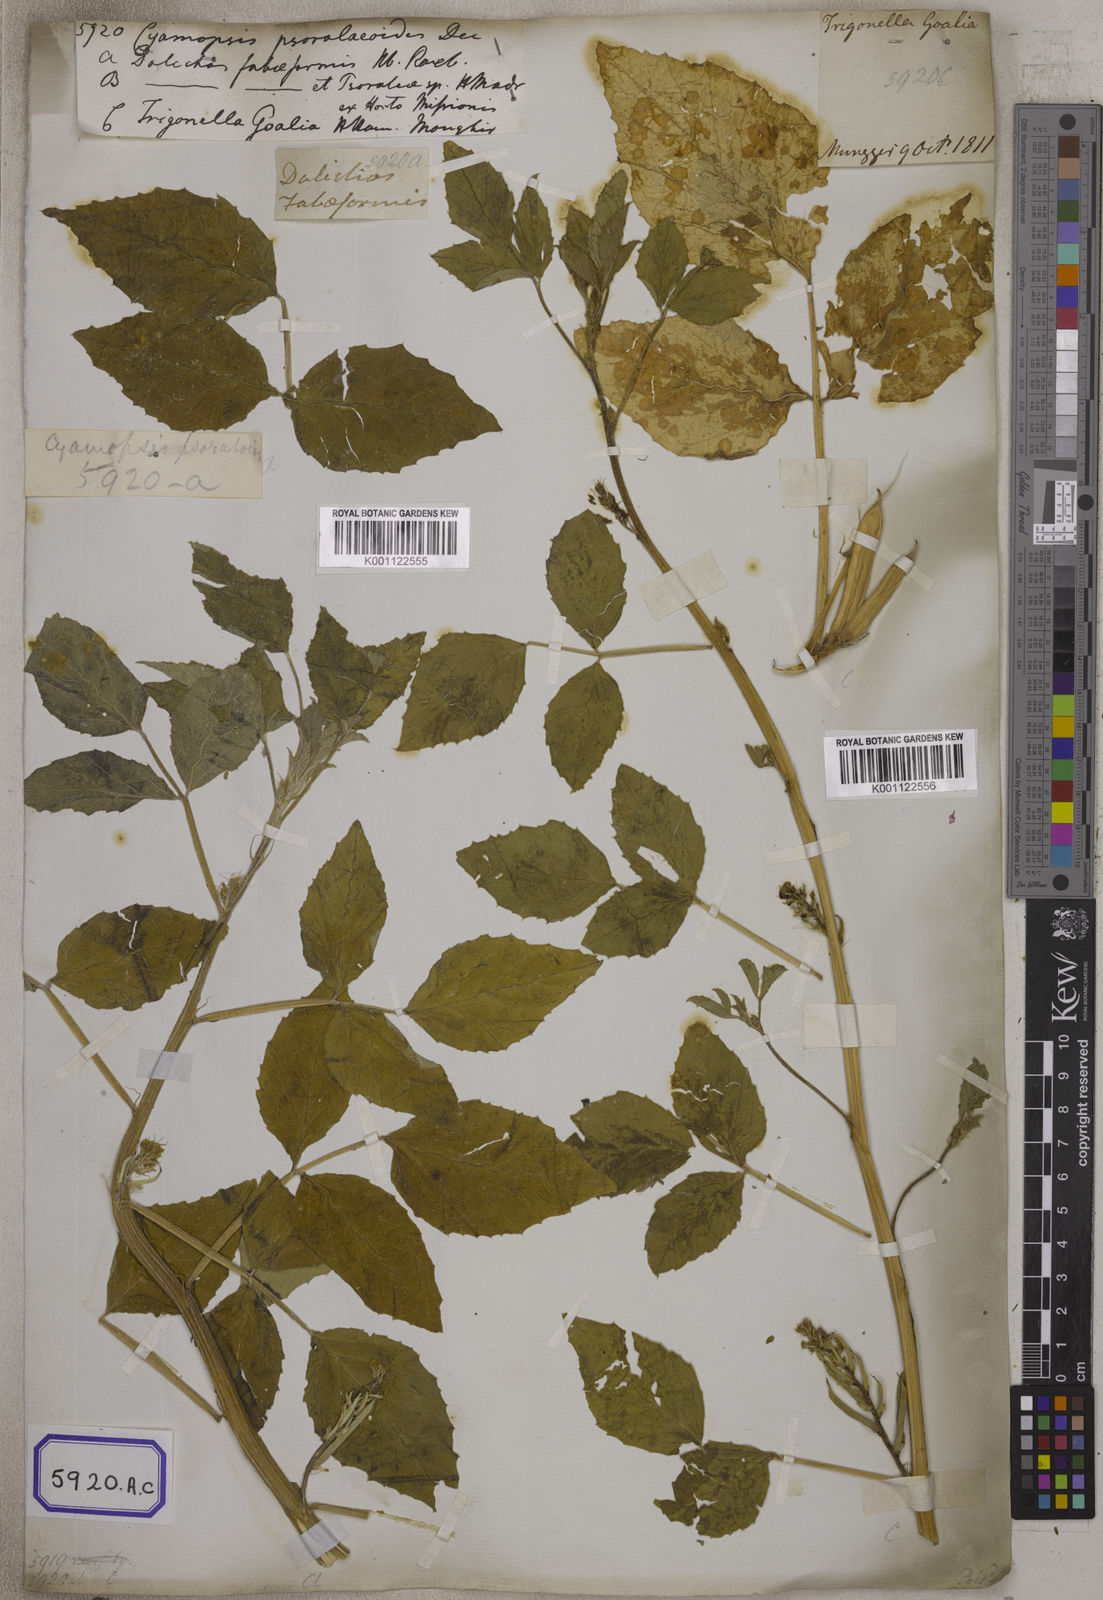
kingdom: Plantae
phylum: Tracheophyta
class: Magnoliopsida
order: Fabales
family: Fabaceae
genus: Cyamopsis
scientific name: Cyamopsis tetragonoloba
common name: Cluster-bean
